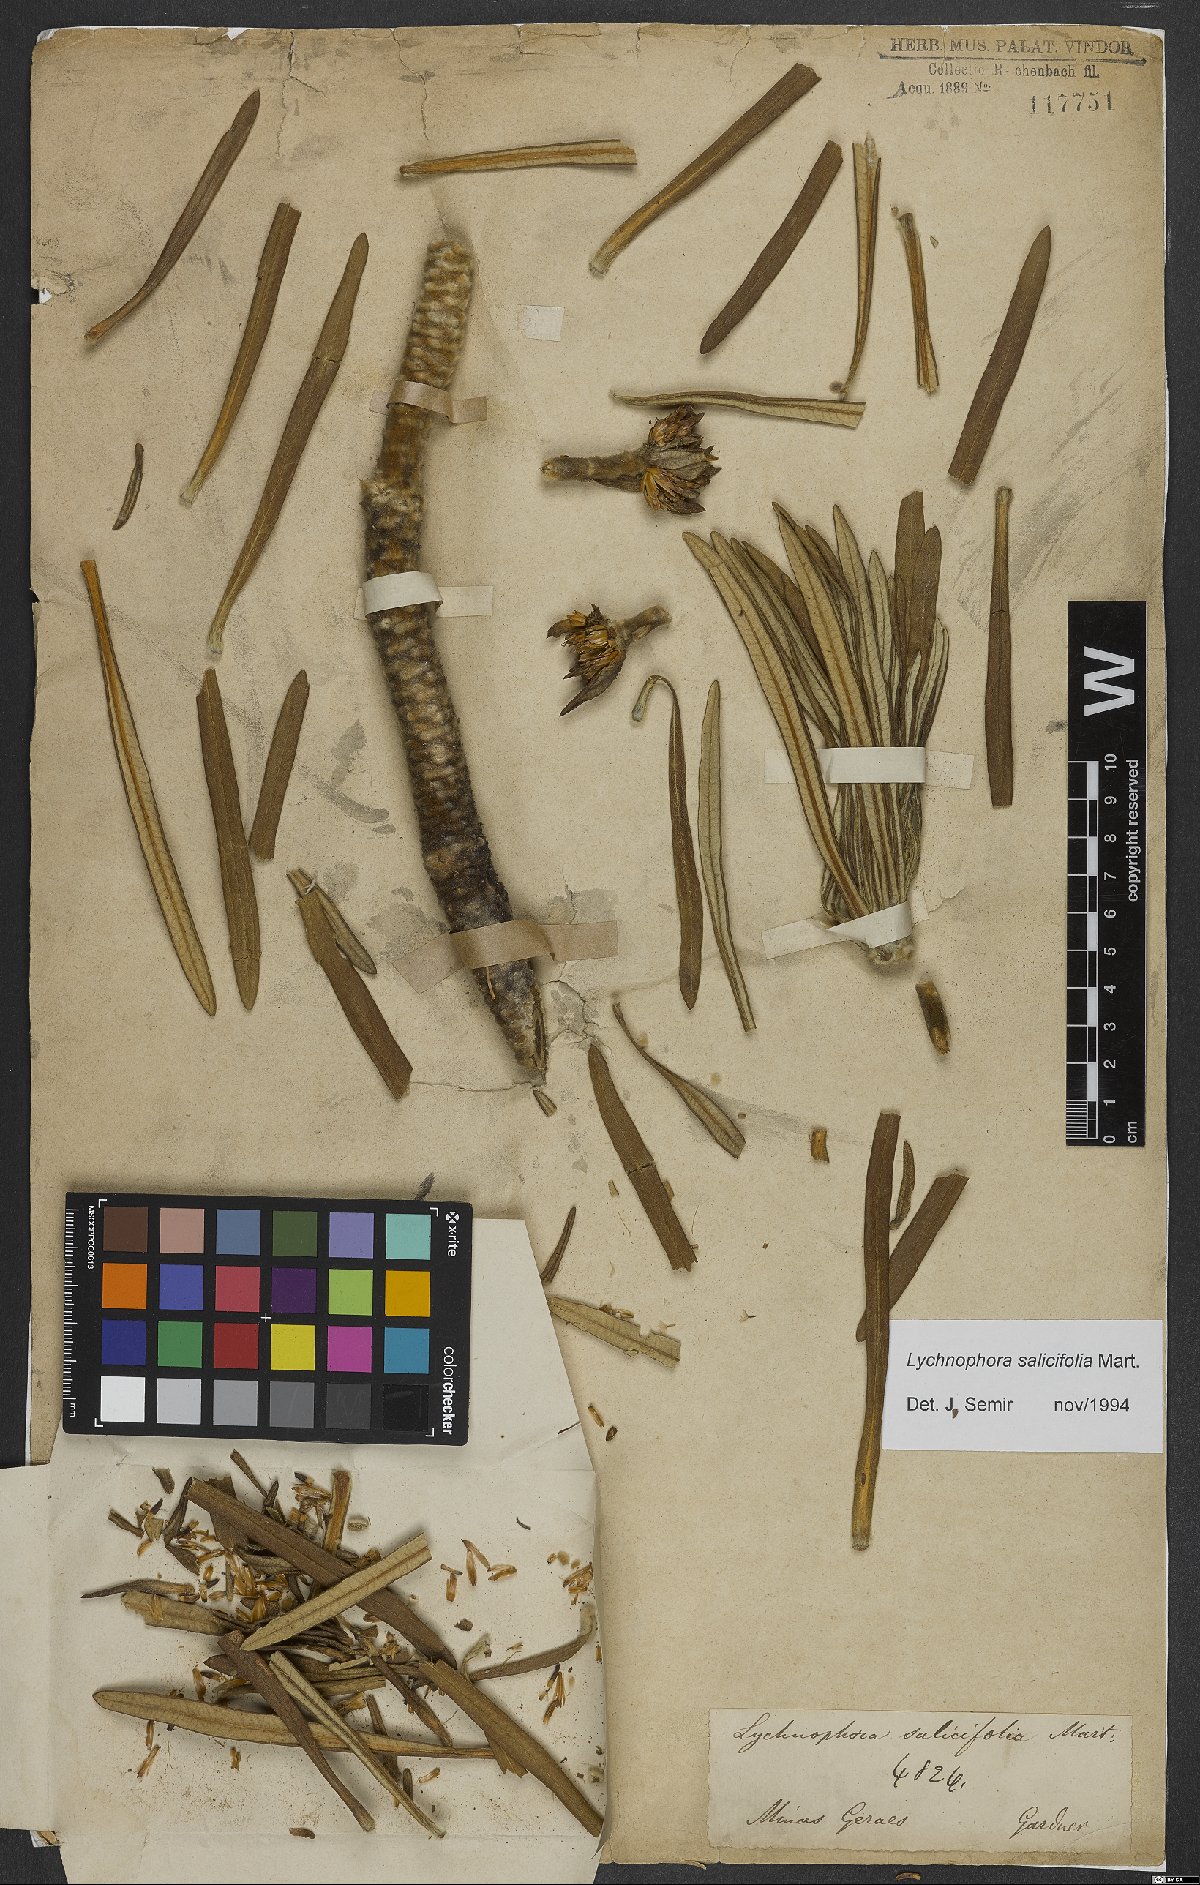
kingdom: Plantae
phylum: Tracheophyta
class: Magnoliopsida
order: Asterales
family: Asteraceae
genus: Lychnophora
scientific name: Lychnophora salicifolia
